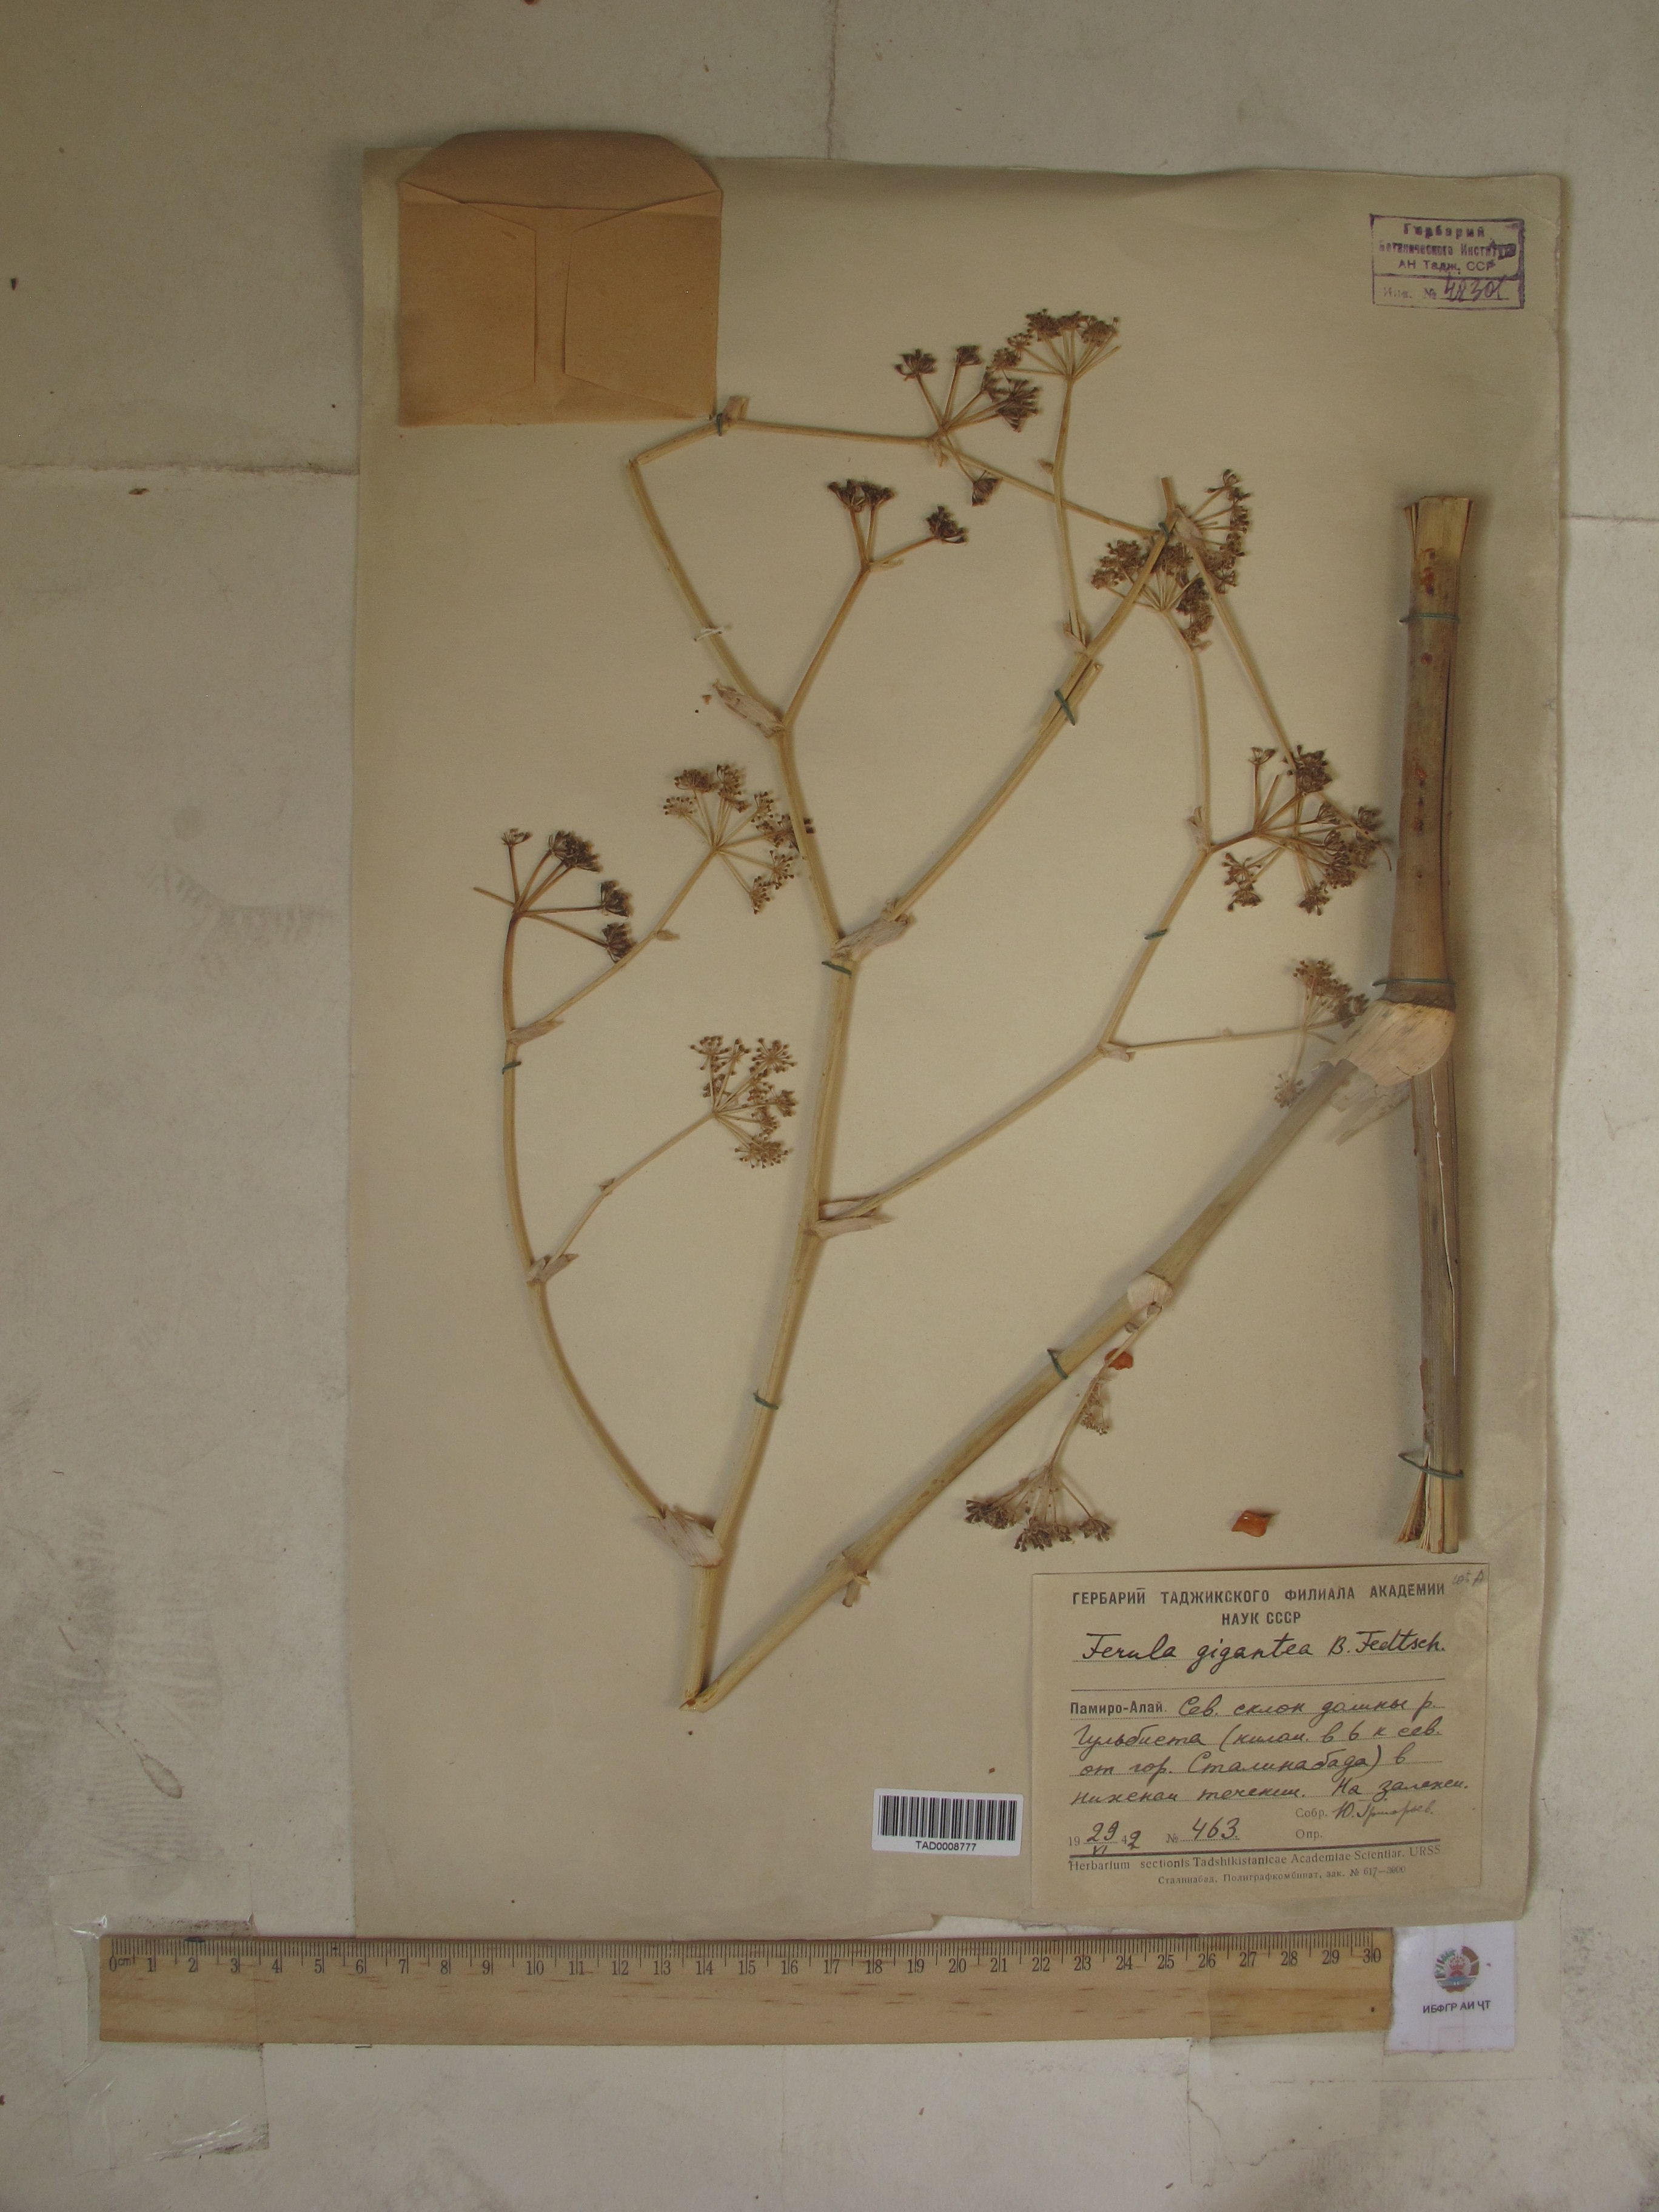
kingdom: Plantae
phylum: Tracheophyta
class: Magnoliopsida
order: Apiales
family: Apiaceae
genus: Ferula
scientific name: Ferula gigantea
